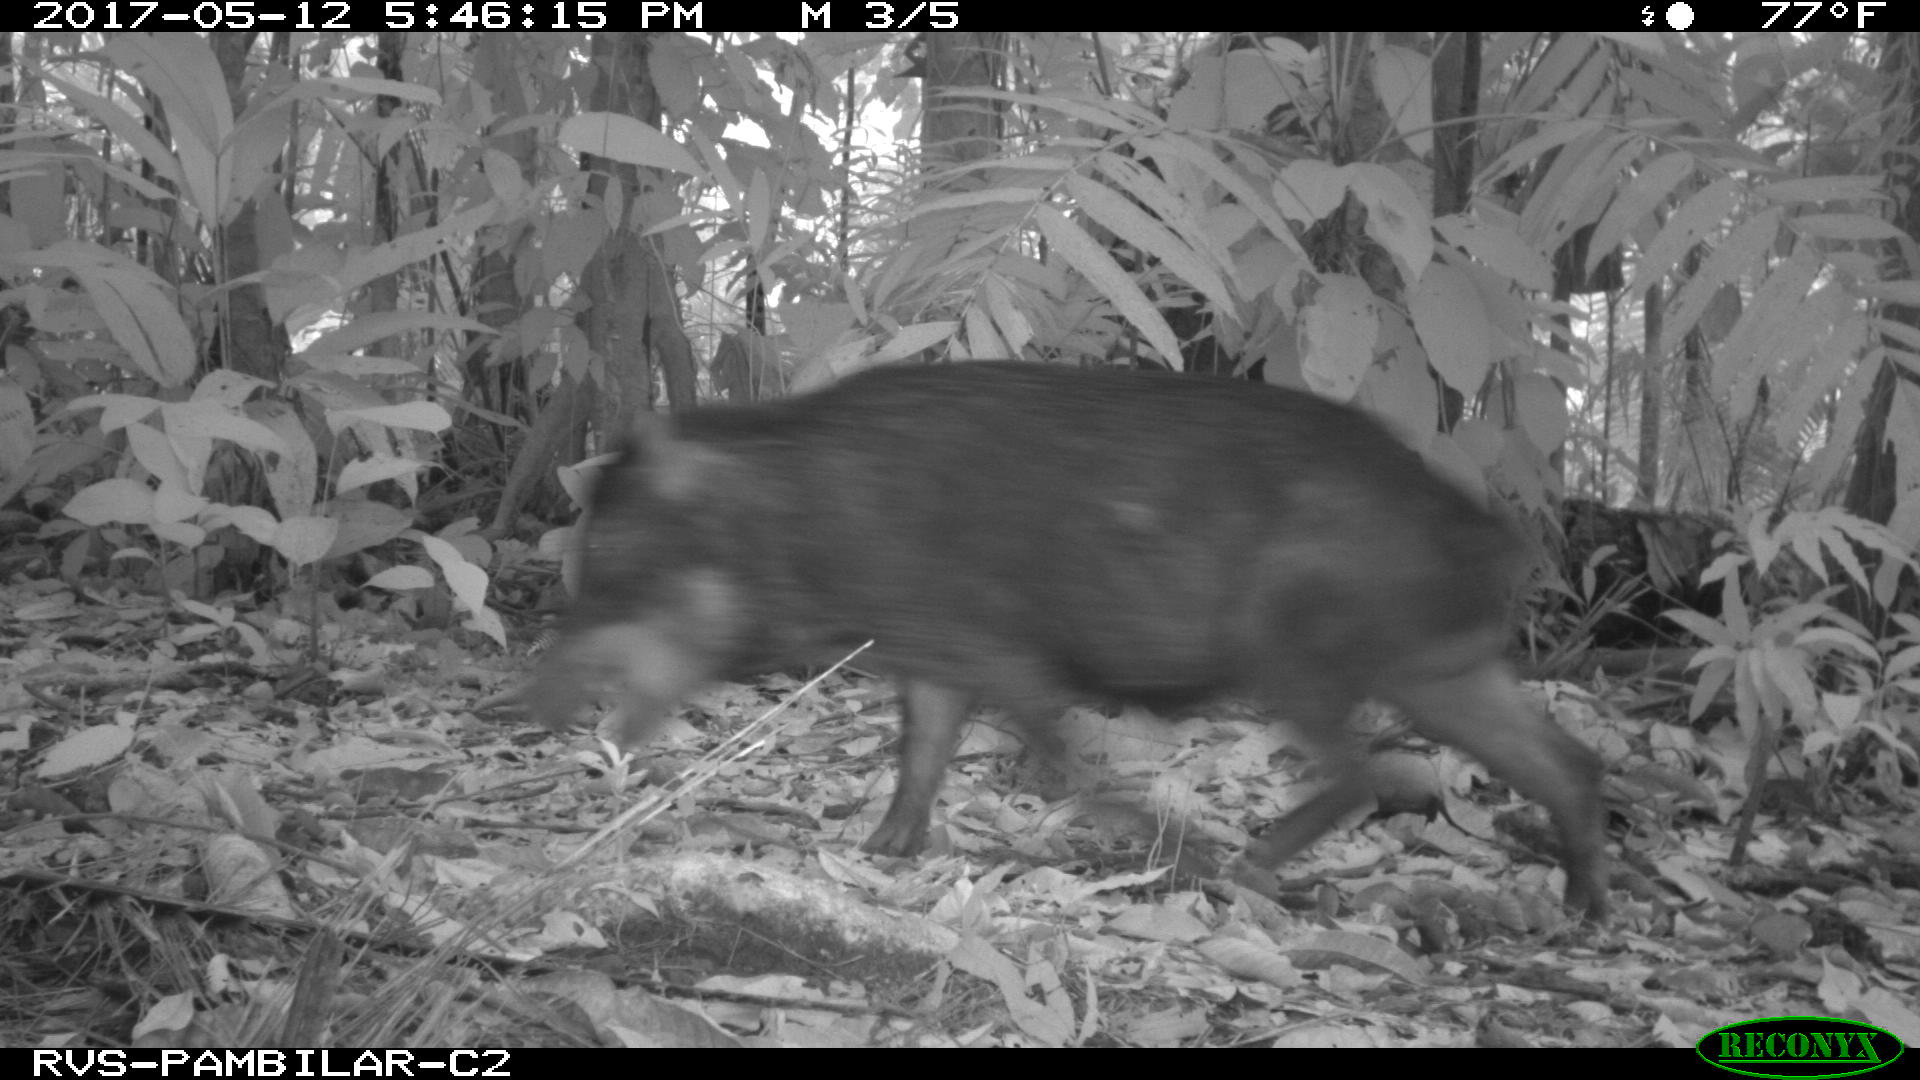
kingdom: Animalia
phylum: Chordata
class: Mammalia
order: Artiodactyla
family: Tayassuidae
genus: Tayassu
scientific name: Tayassu pecari
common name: White-lipped peccary
